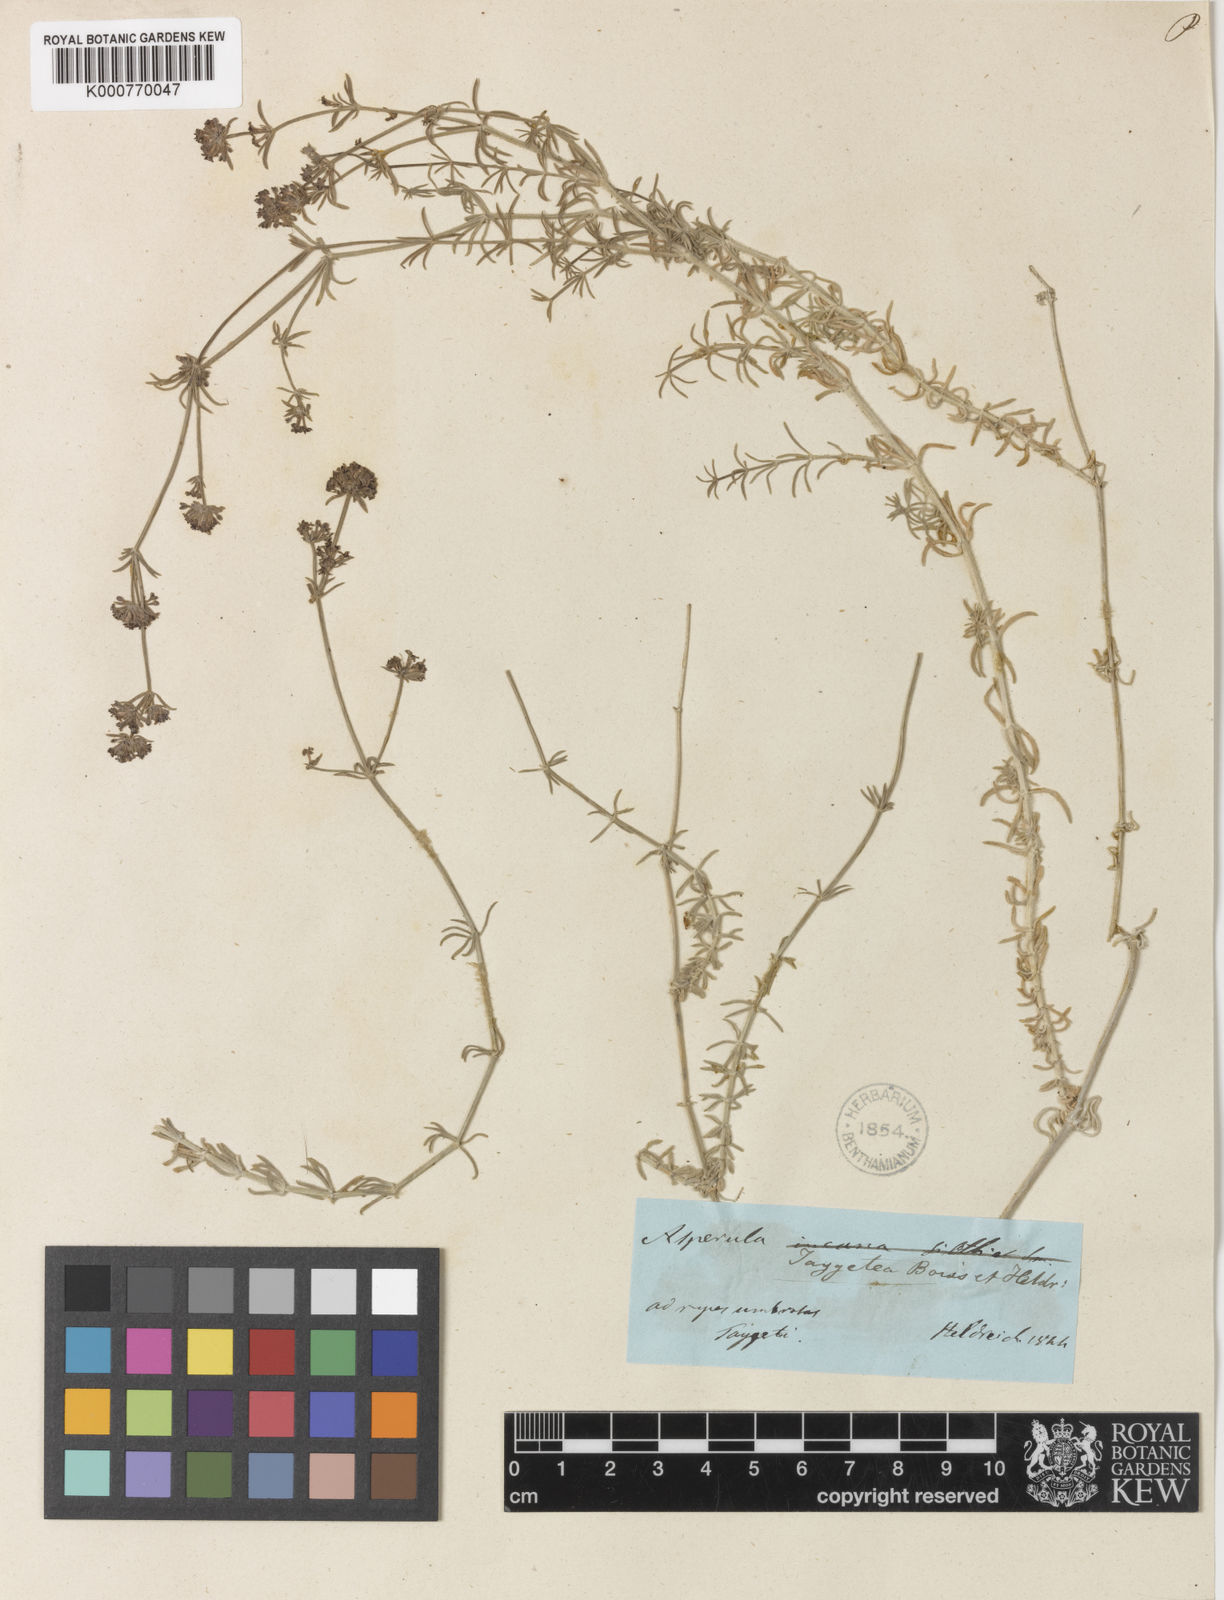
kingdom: Plantae
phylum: Tracheophyta
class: Magnoliopsida
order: Gentianales
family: Rubiaceae
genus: Hexaphylla
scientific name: Hexaphylla taygetea
